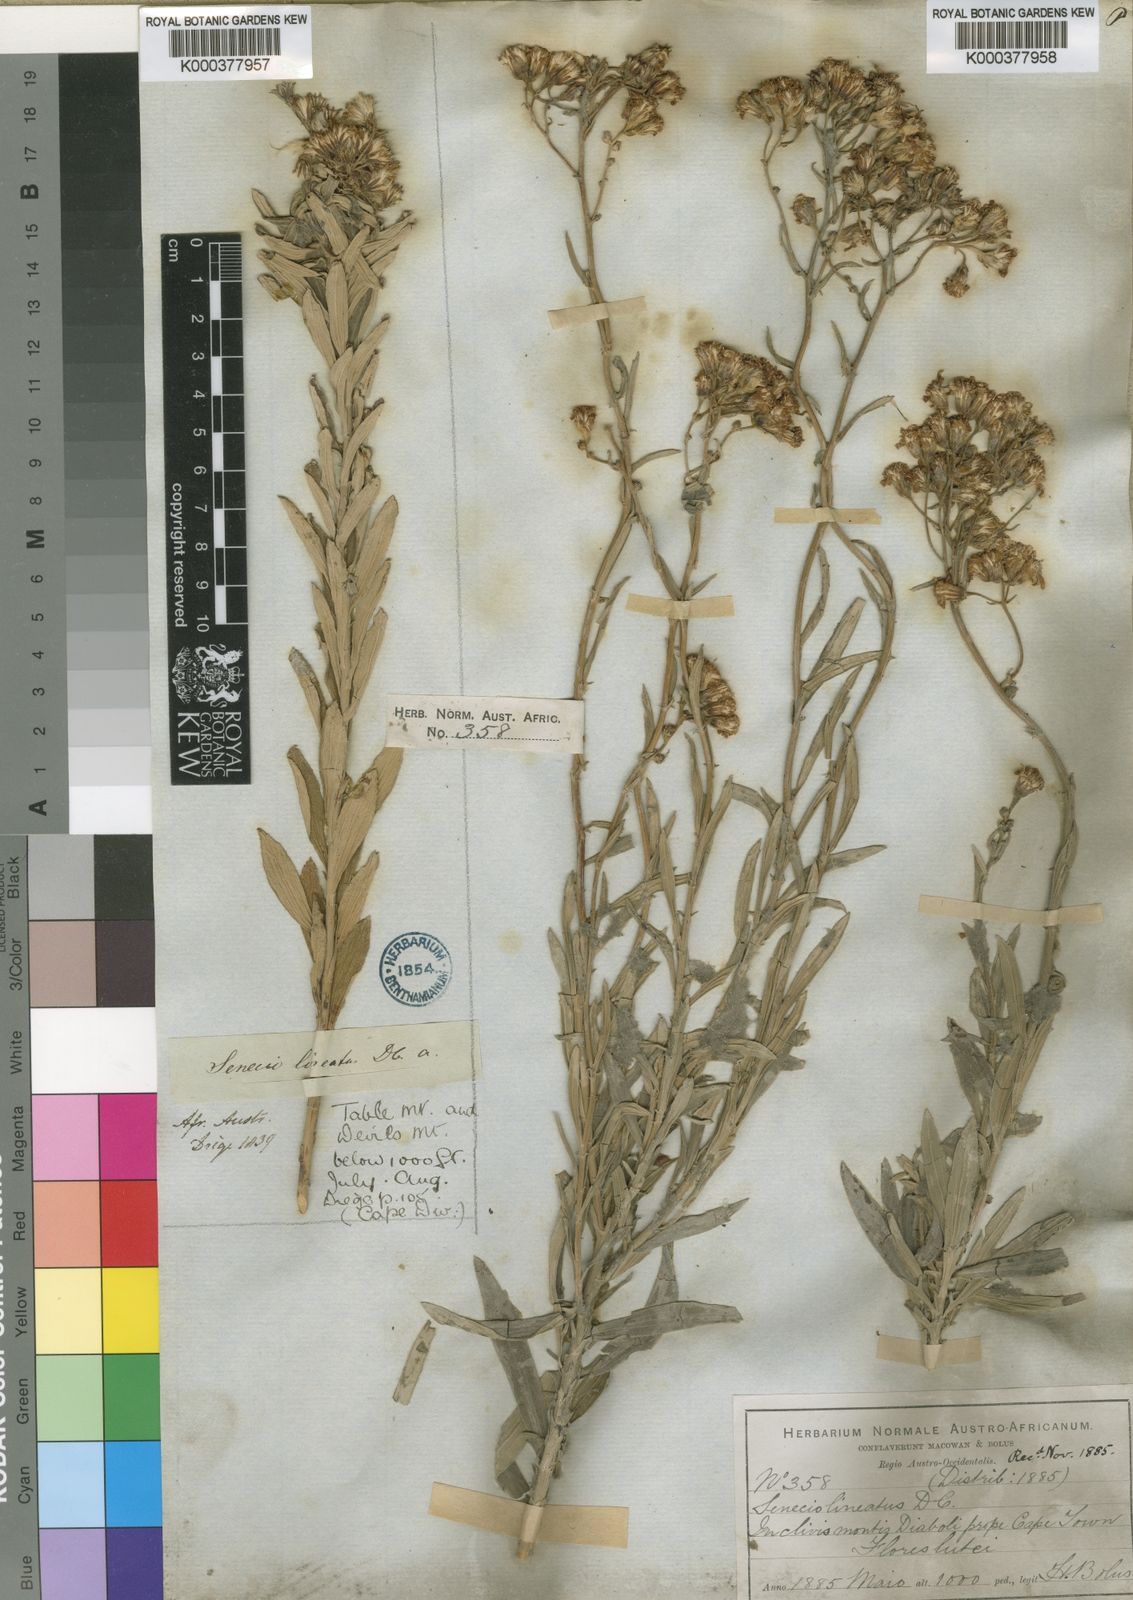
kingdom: Plantae
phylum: Tracheophyta
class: Magnoliopsida
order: Asterales
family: Asteraceae
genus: Senecio
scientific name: Senecio lineatus
